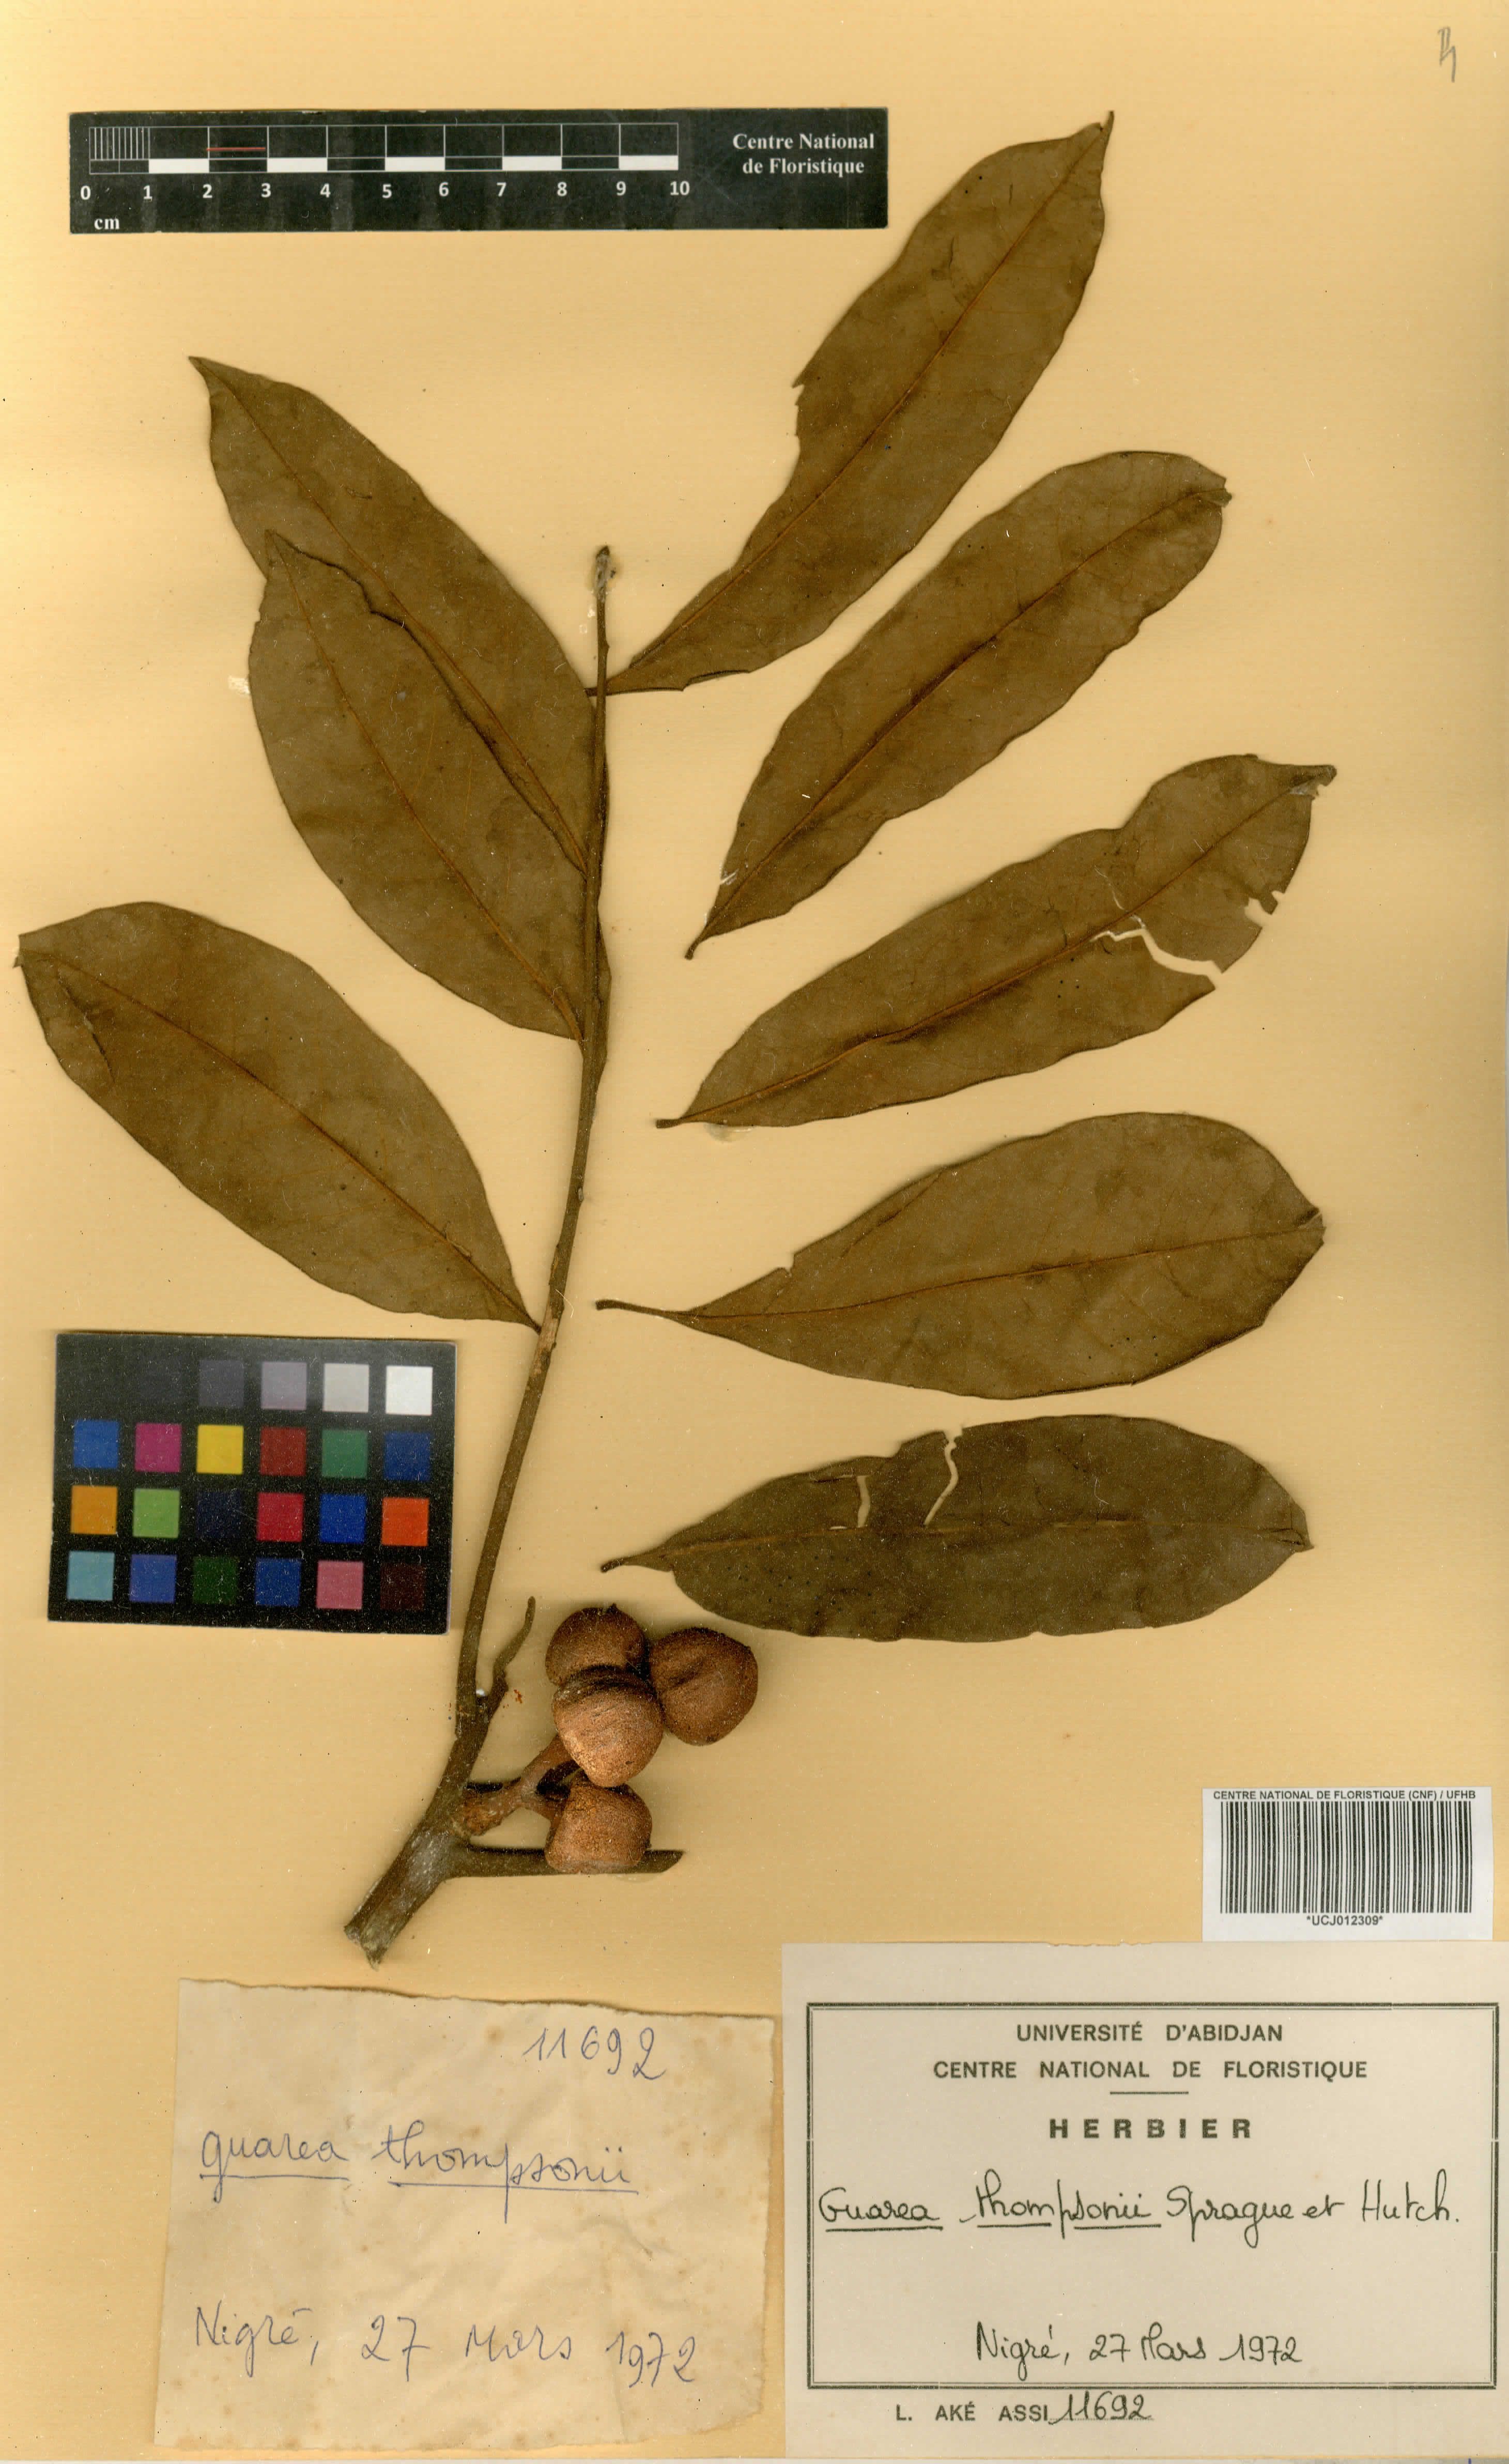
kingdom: Plantae
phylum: Tracheophyta
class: Magnoliopsida
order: Sapindales
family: Meliaceae
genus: Leplaea
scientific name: Leplaea thompsonii
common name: Black guarea
